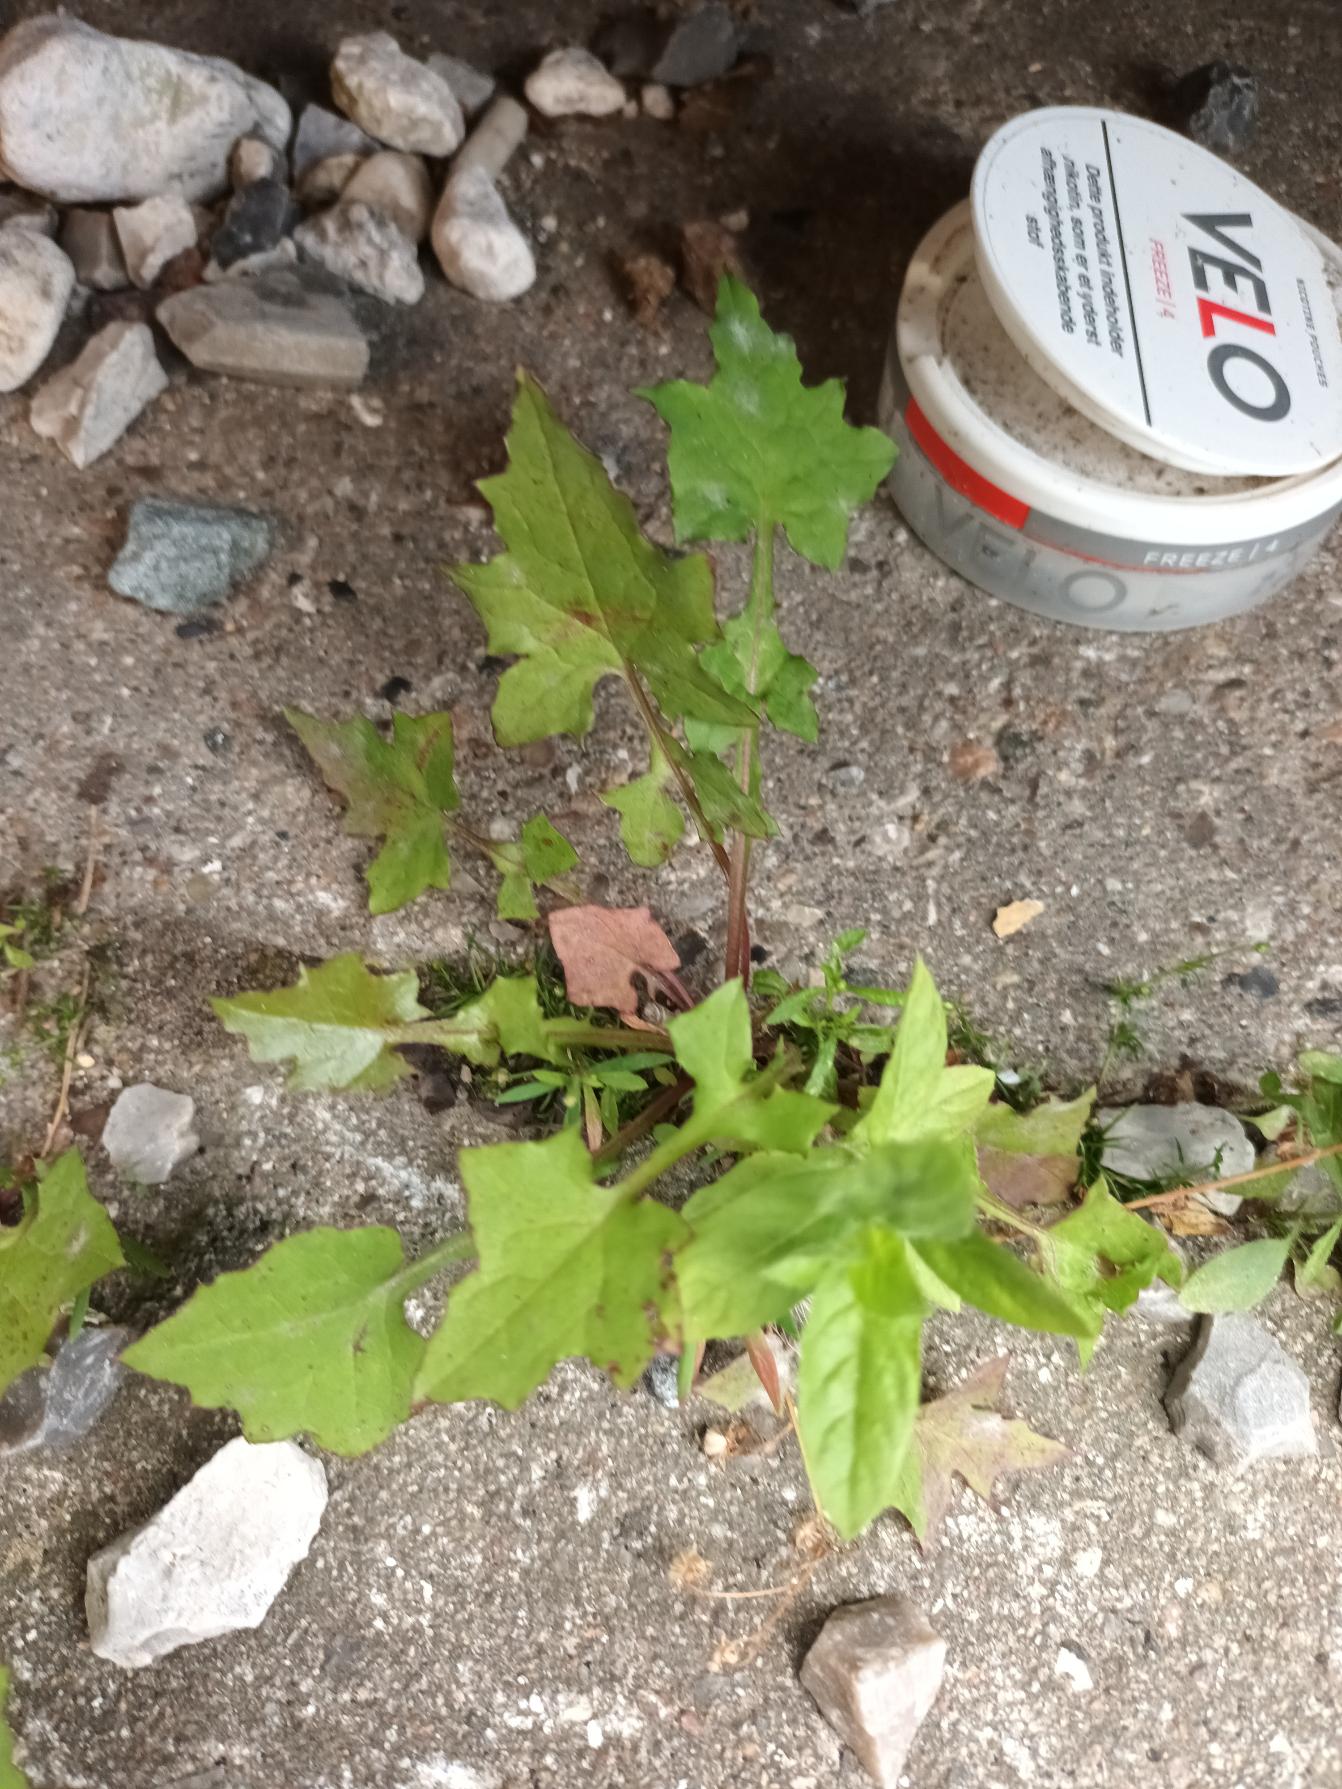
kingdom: Plantae
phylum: Tracheophyta
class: Magnoliopsida
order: Asterales
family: Asteraceae
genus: Mycelis
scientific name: Mycelis muralis
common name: Skov-salat
